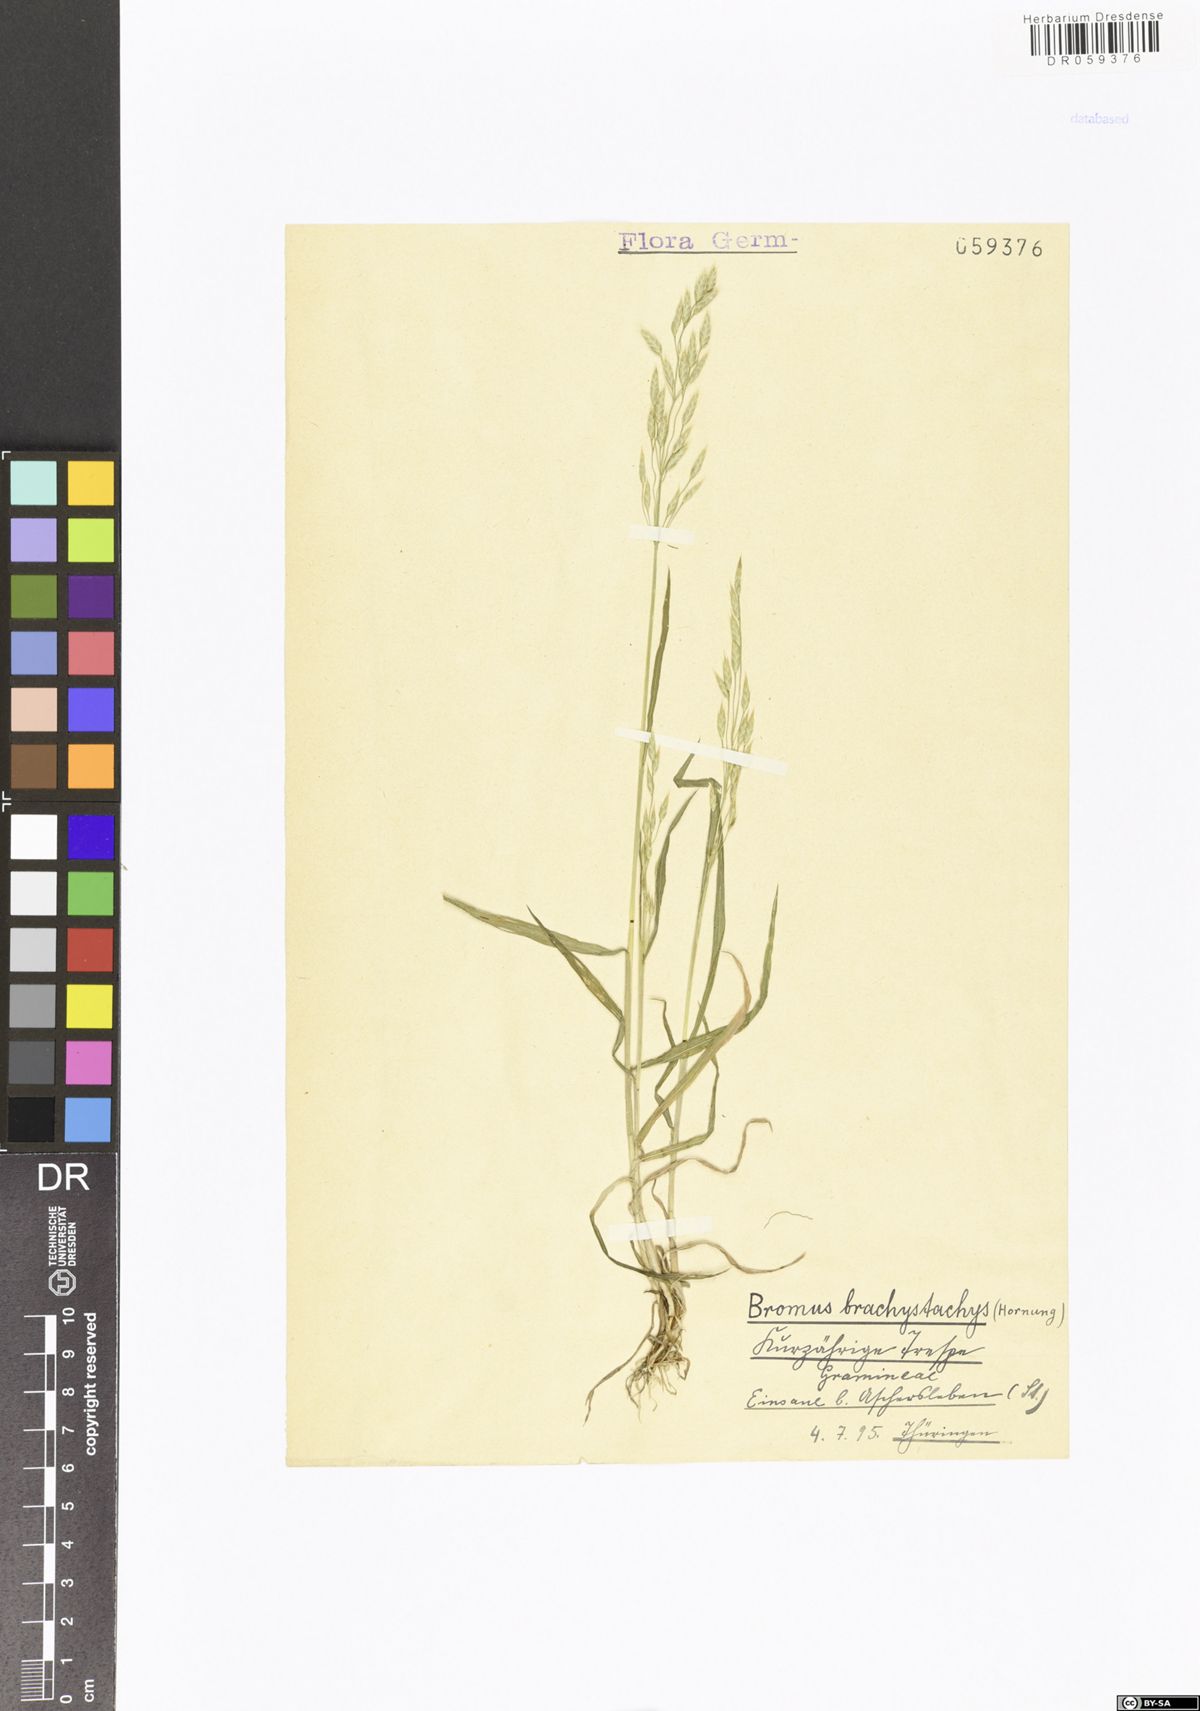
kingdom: Plantae
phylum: Tracheophyta
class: Liliopsida
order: Poales
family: Poaceae
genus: Bromus
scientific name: Bromus brachystachys
